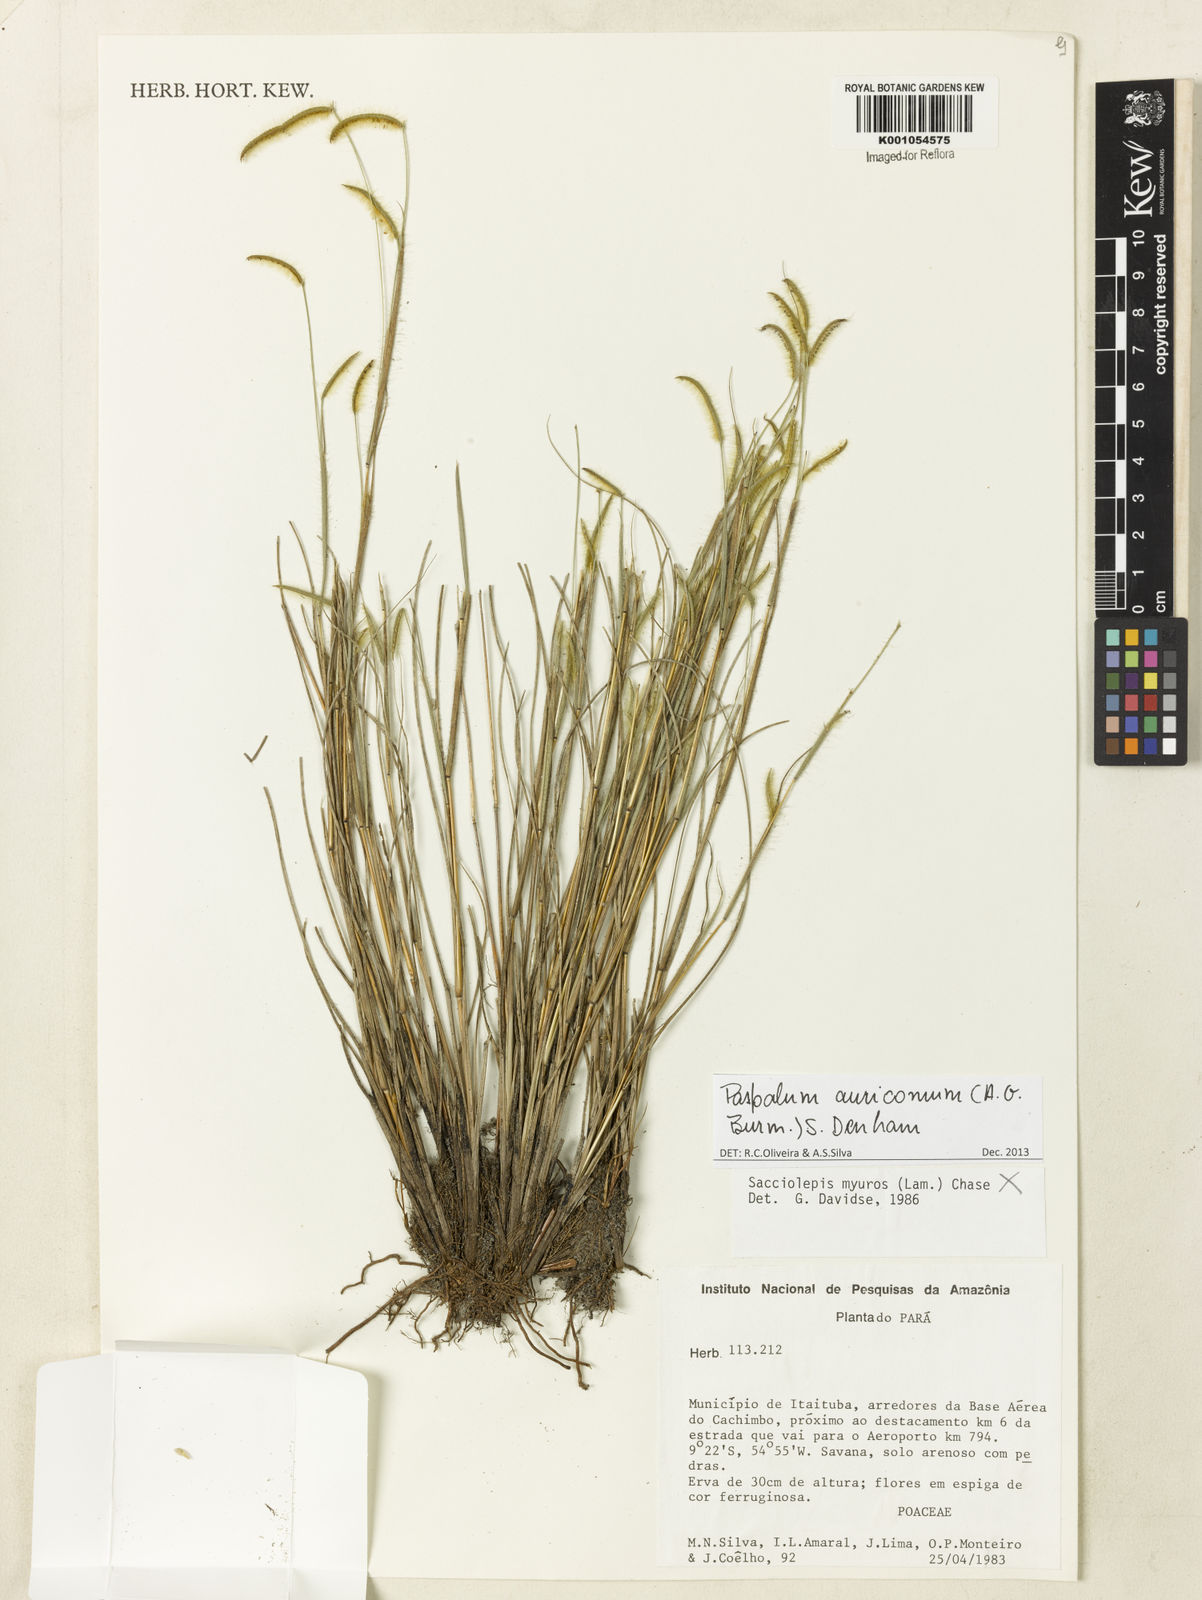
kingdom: Plantae
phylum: Tracheophyta
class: Liliopsida
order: Poales
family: Poaceae
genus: Paspalum
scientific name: Paspalum auricomum
